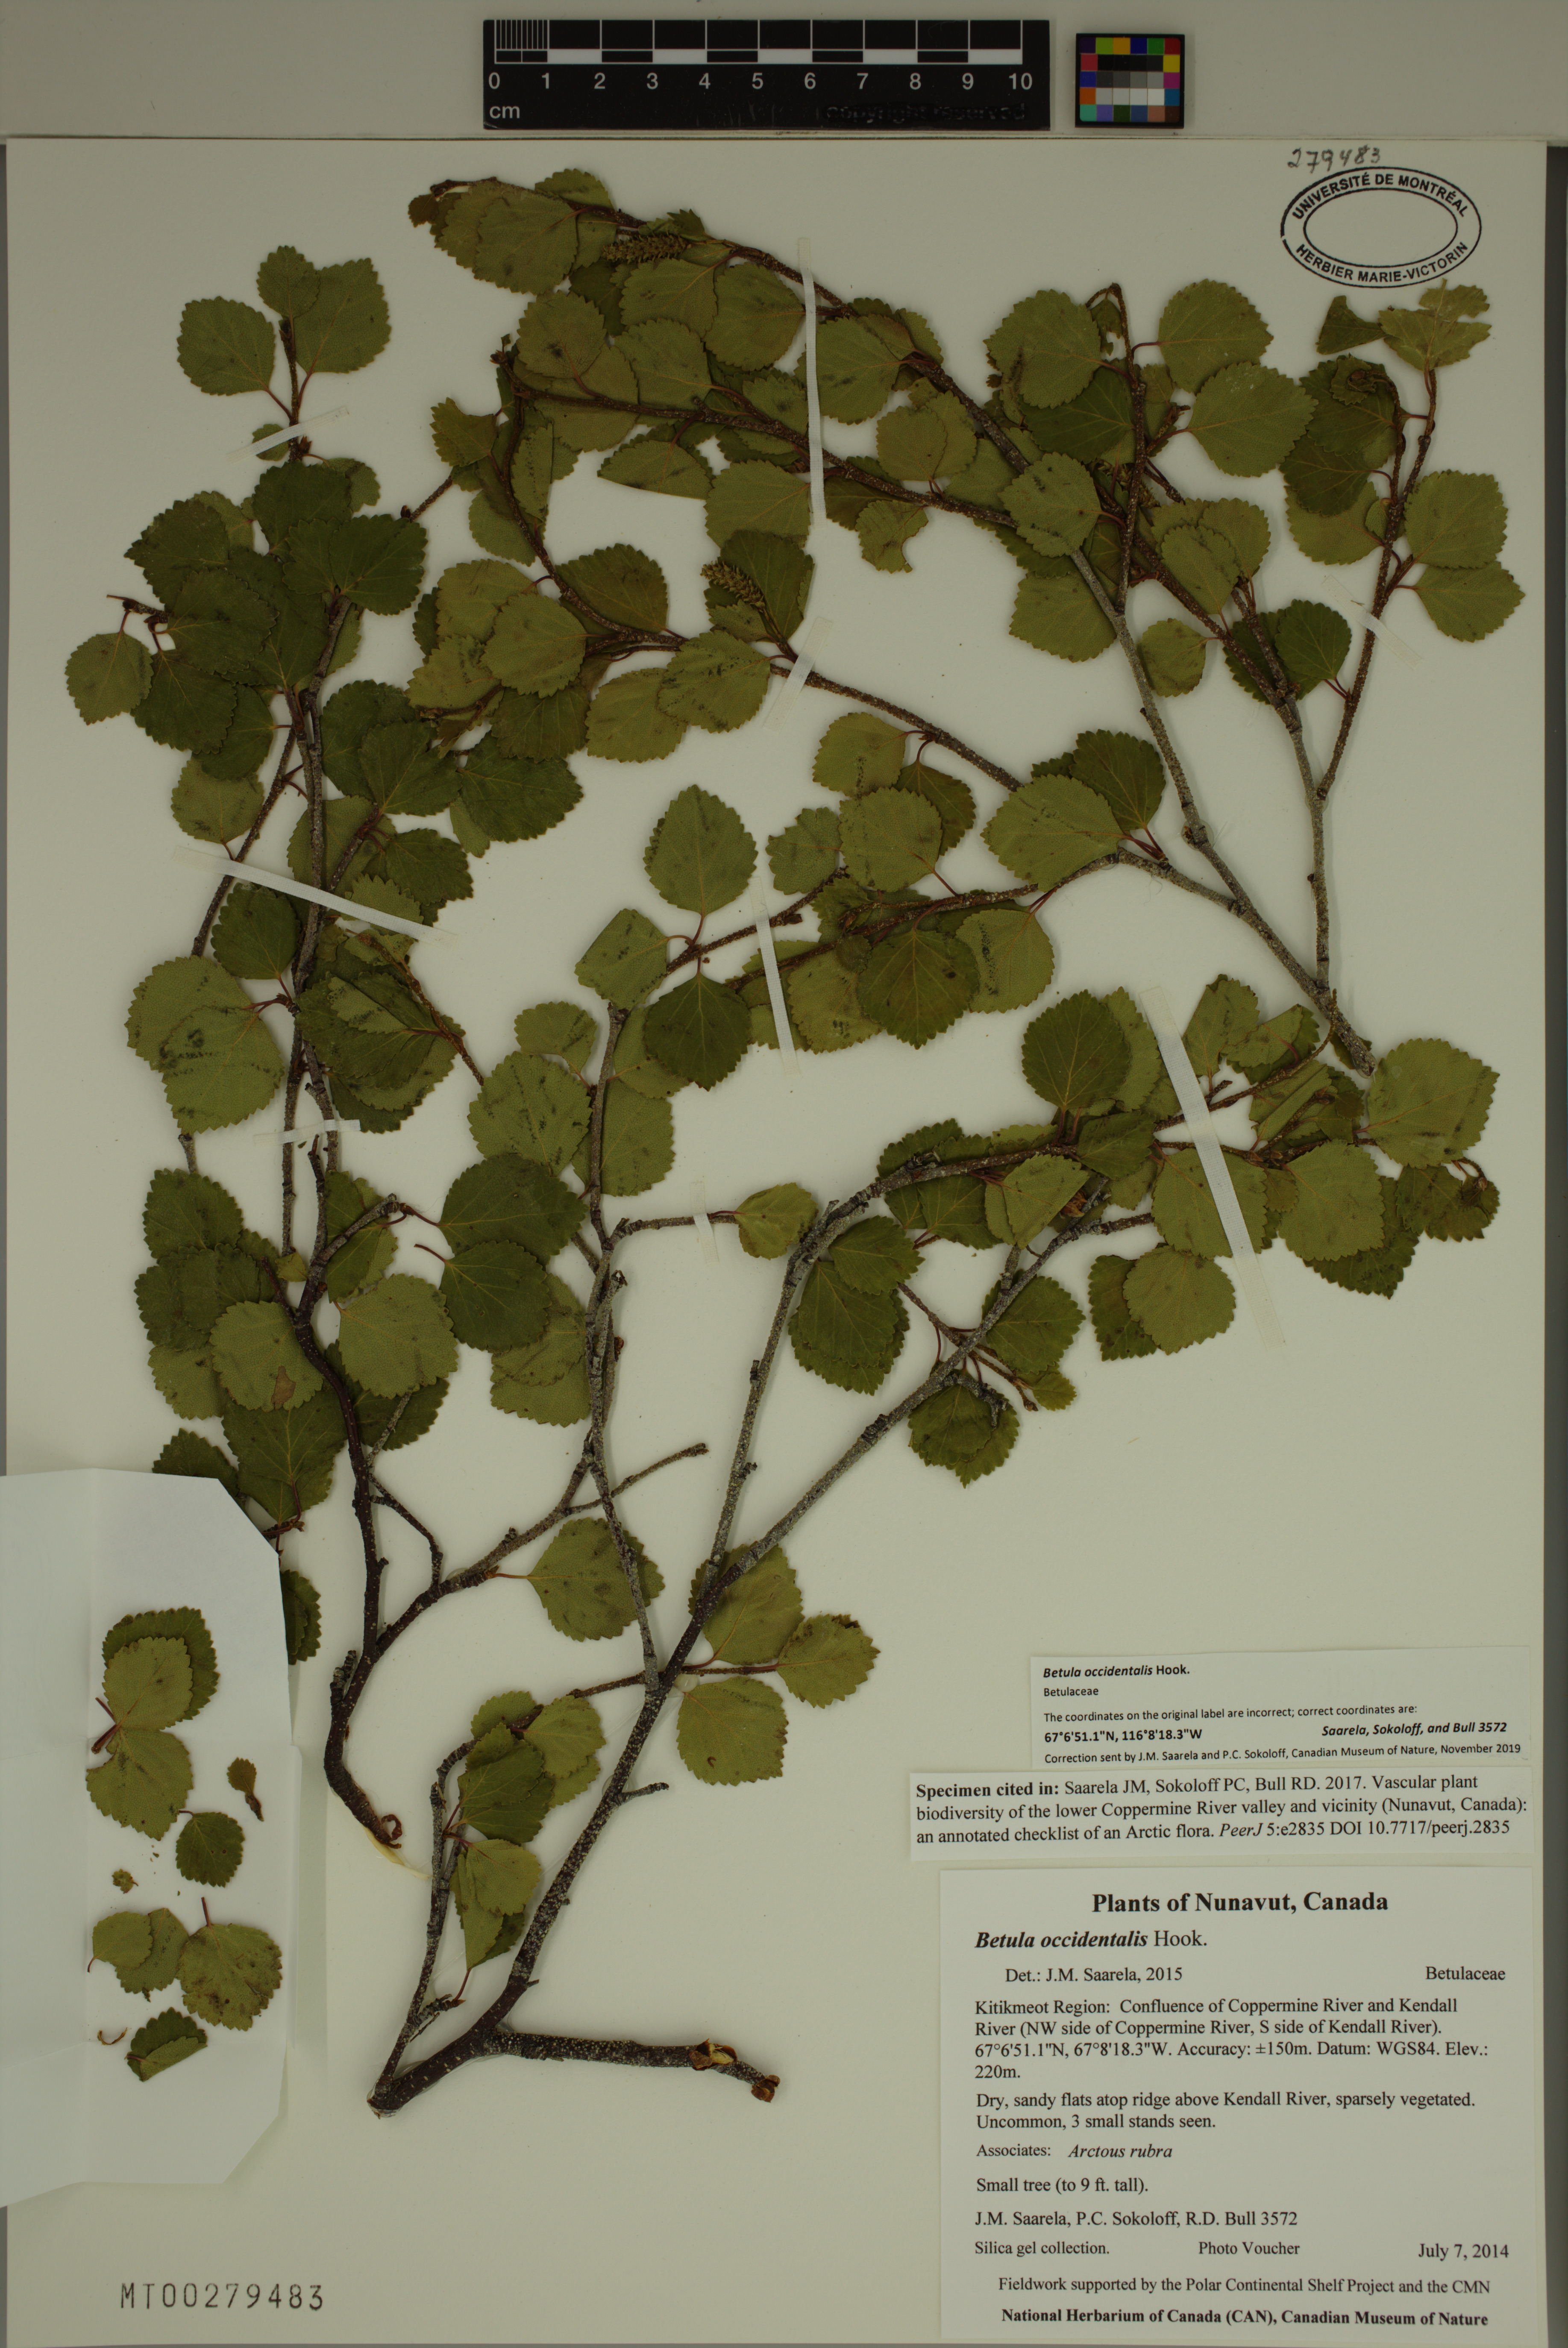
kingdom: Plantae
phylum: Tracheophyta
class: Magnoliopsida
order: Fagales
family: Betulaceae
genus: Betula
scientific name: Betula occidentalis
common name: River birch
